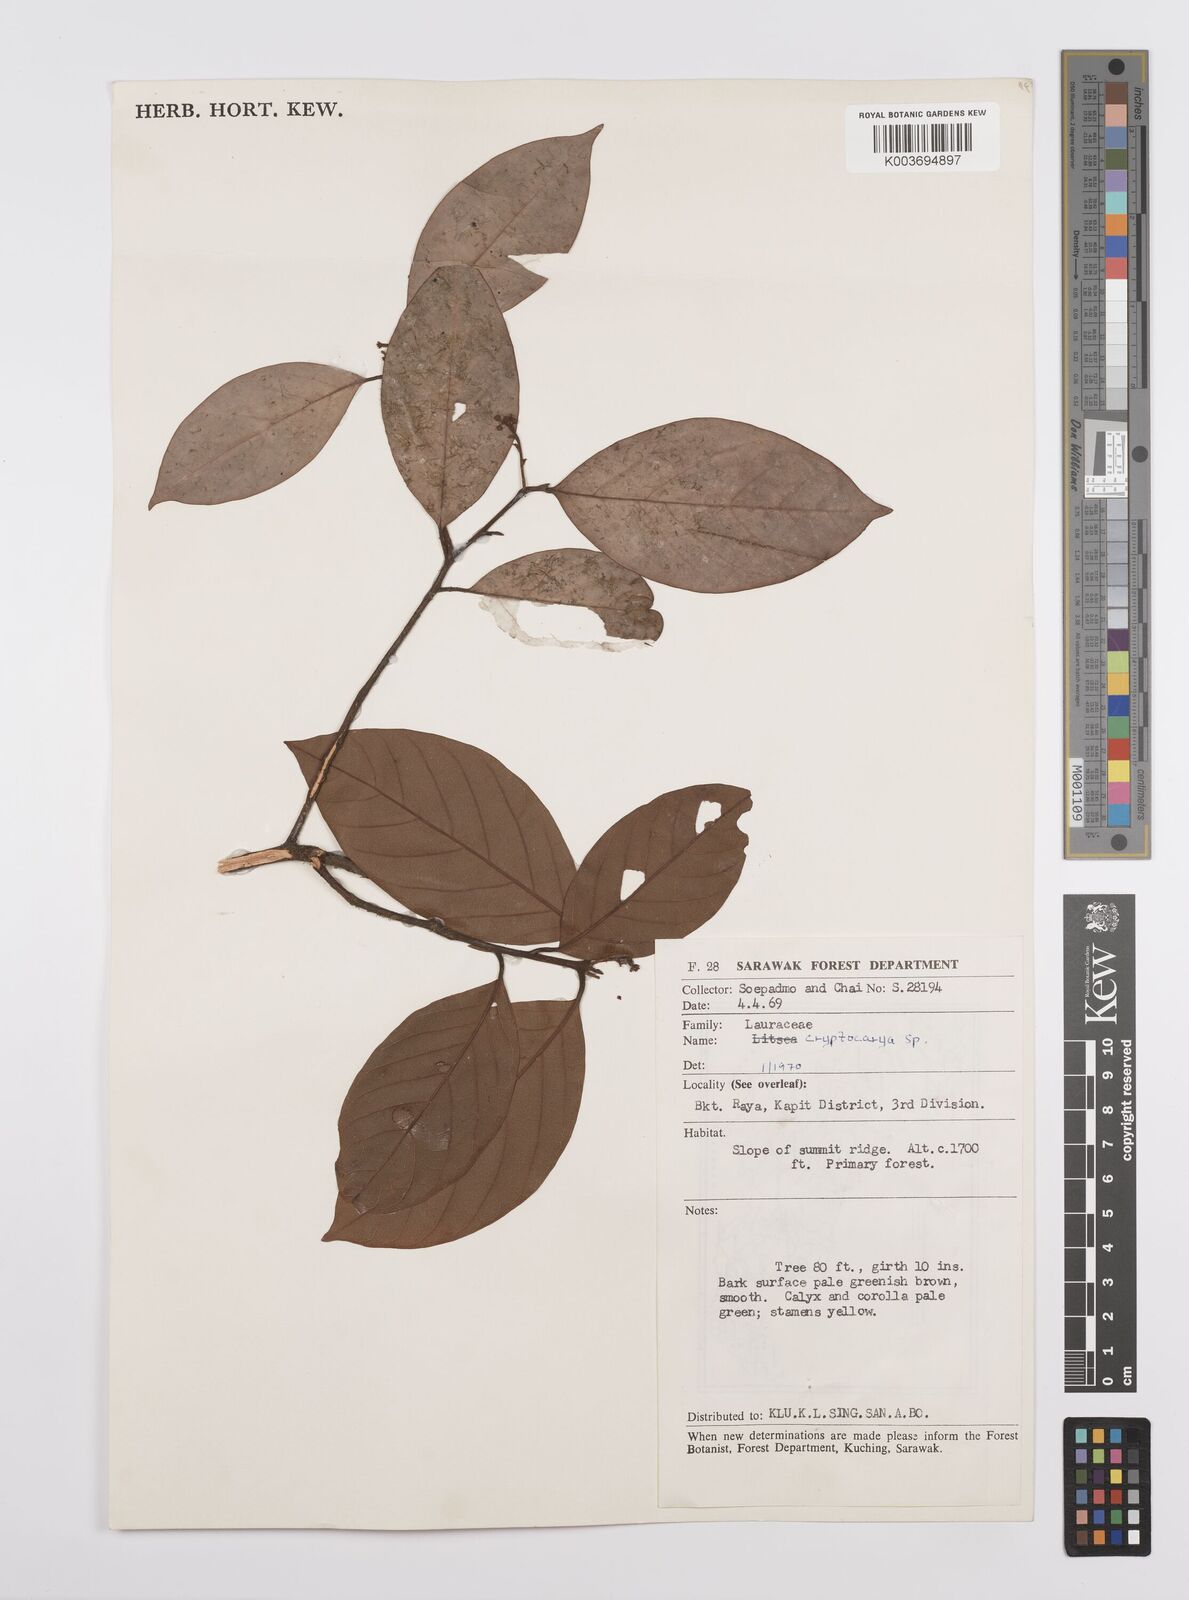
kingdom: Plantae
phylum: Tracheophyta
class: Magnoliopsida
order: Laurales
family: Lauraceae
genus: Cryptocarya
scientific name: Cryptocarya
